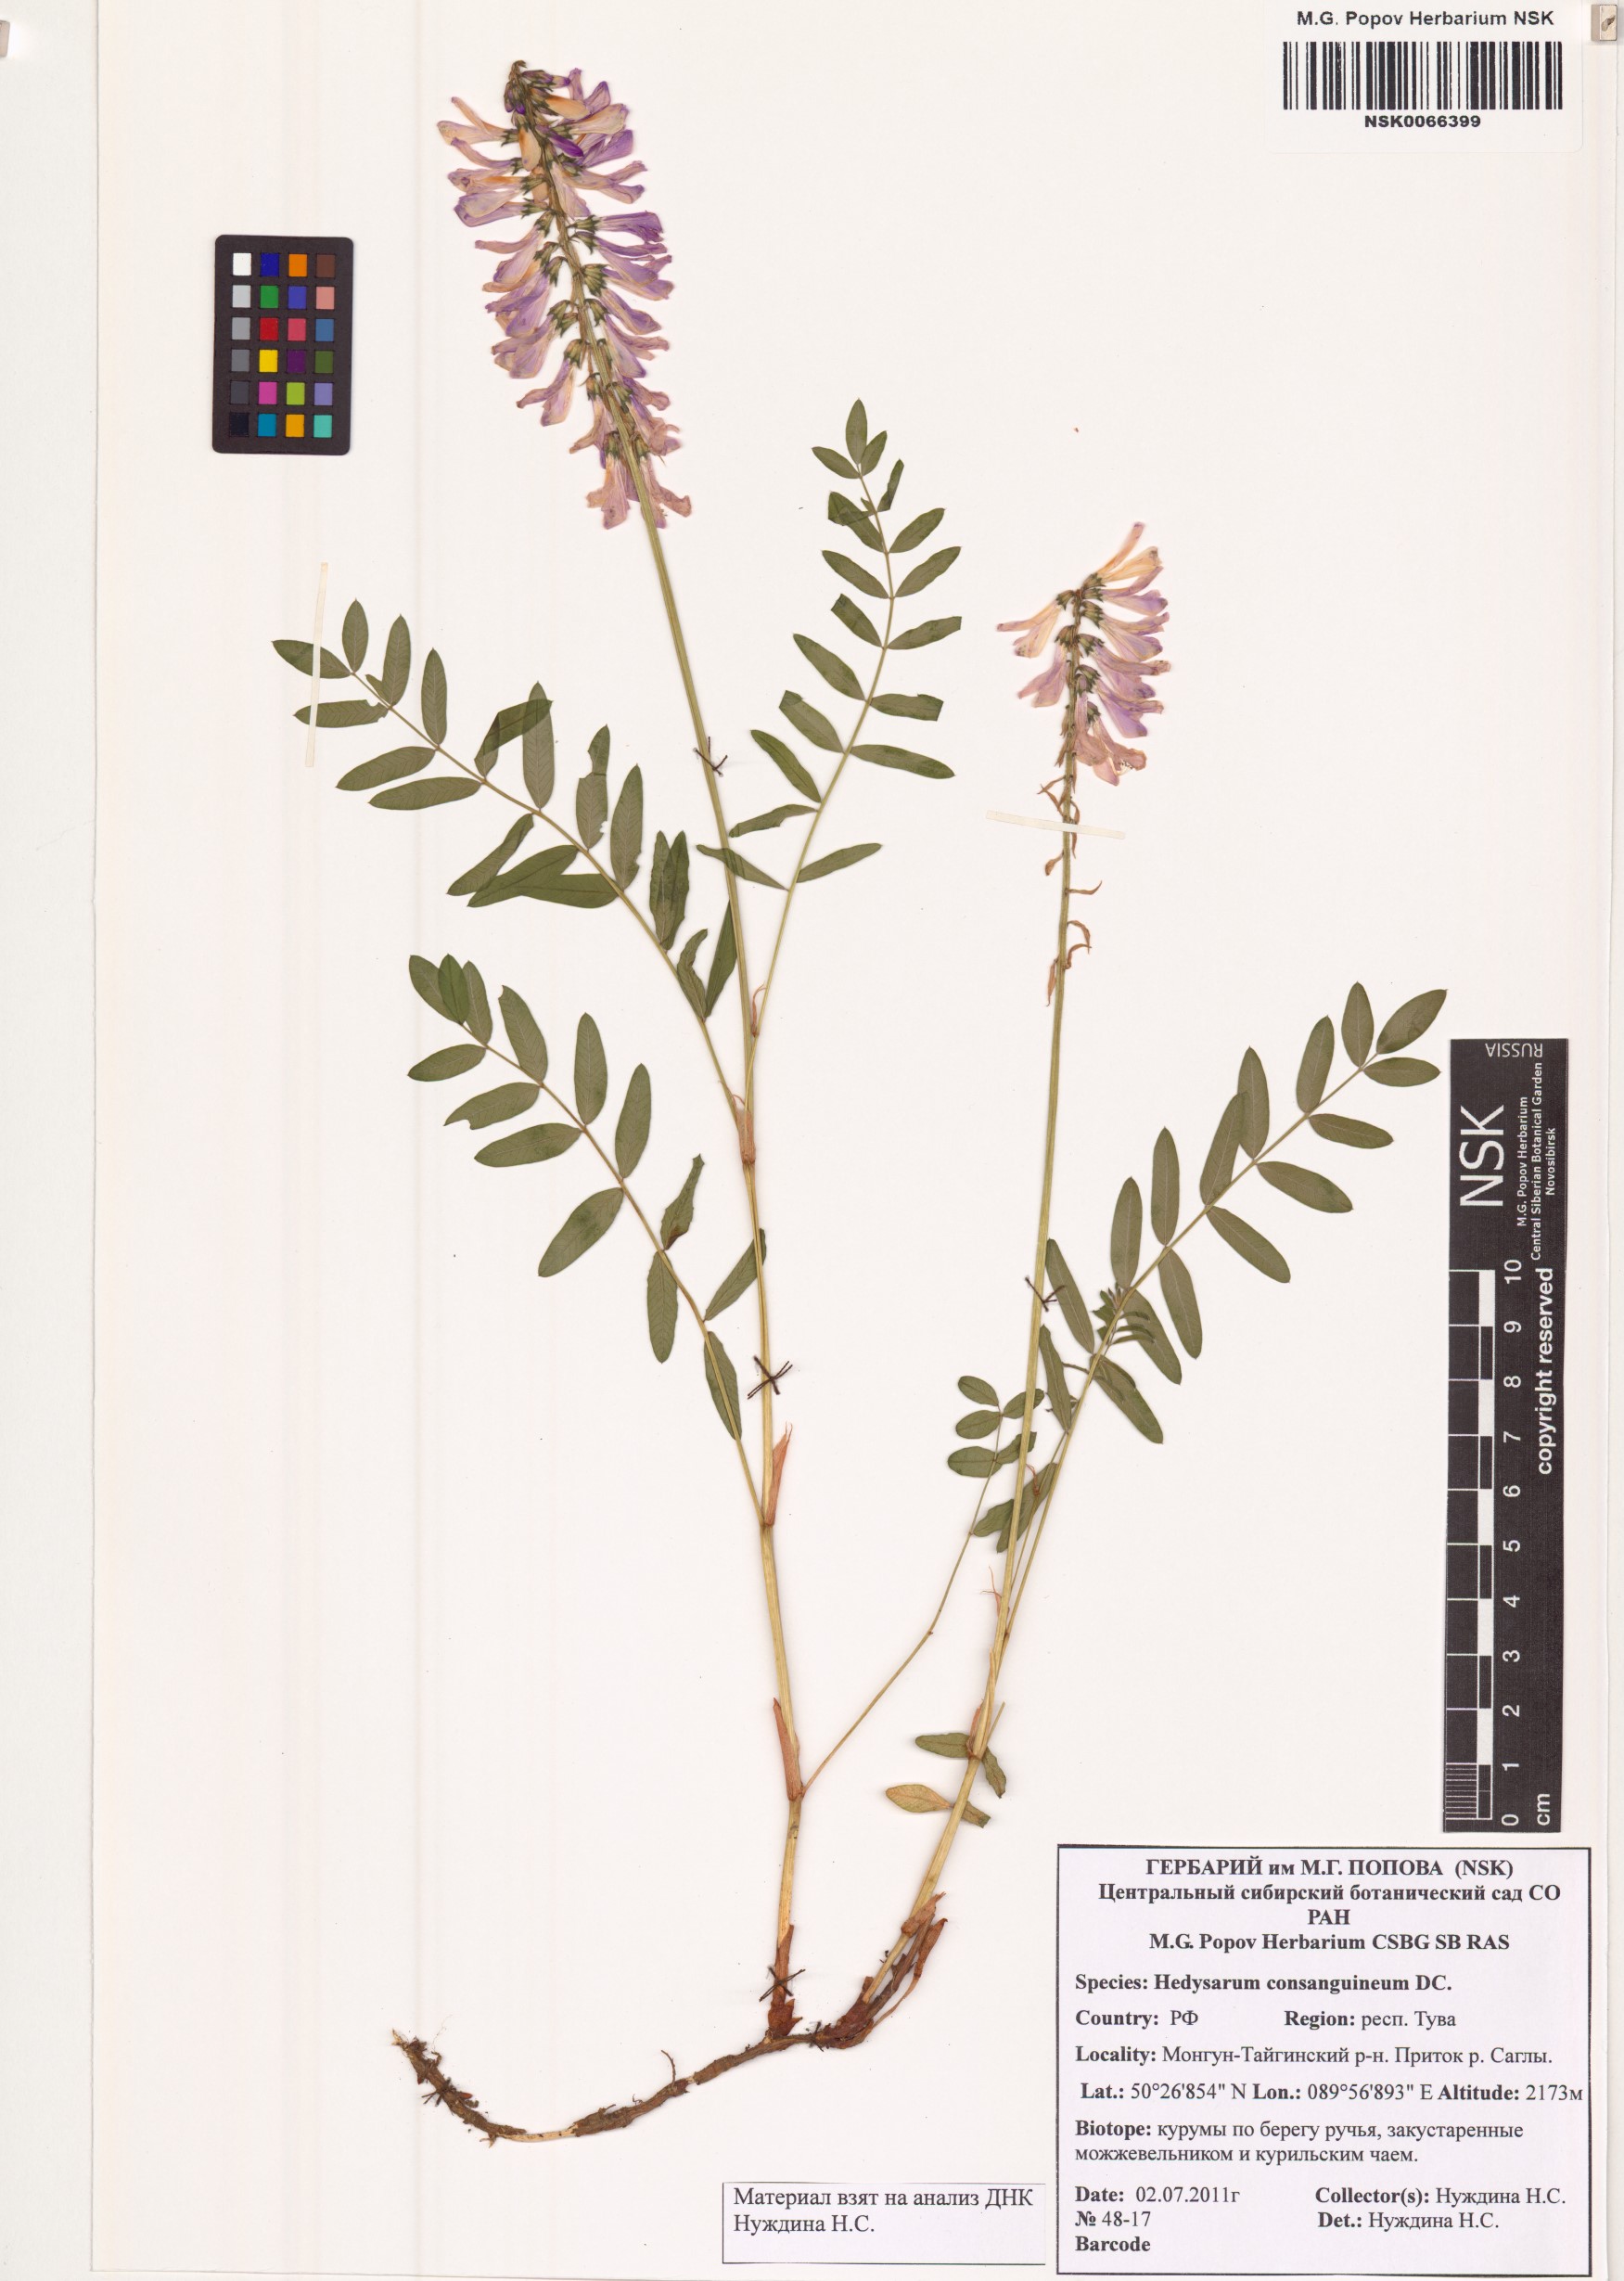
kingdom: Plantae
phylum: Tracheophyta
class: Magnoliopsida
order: Fabales
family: Fabaceae
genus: Hedysarum
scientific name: Hedysarum consanguineum
